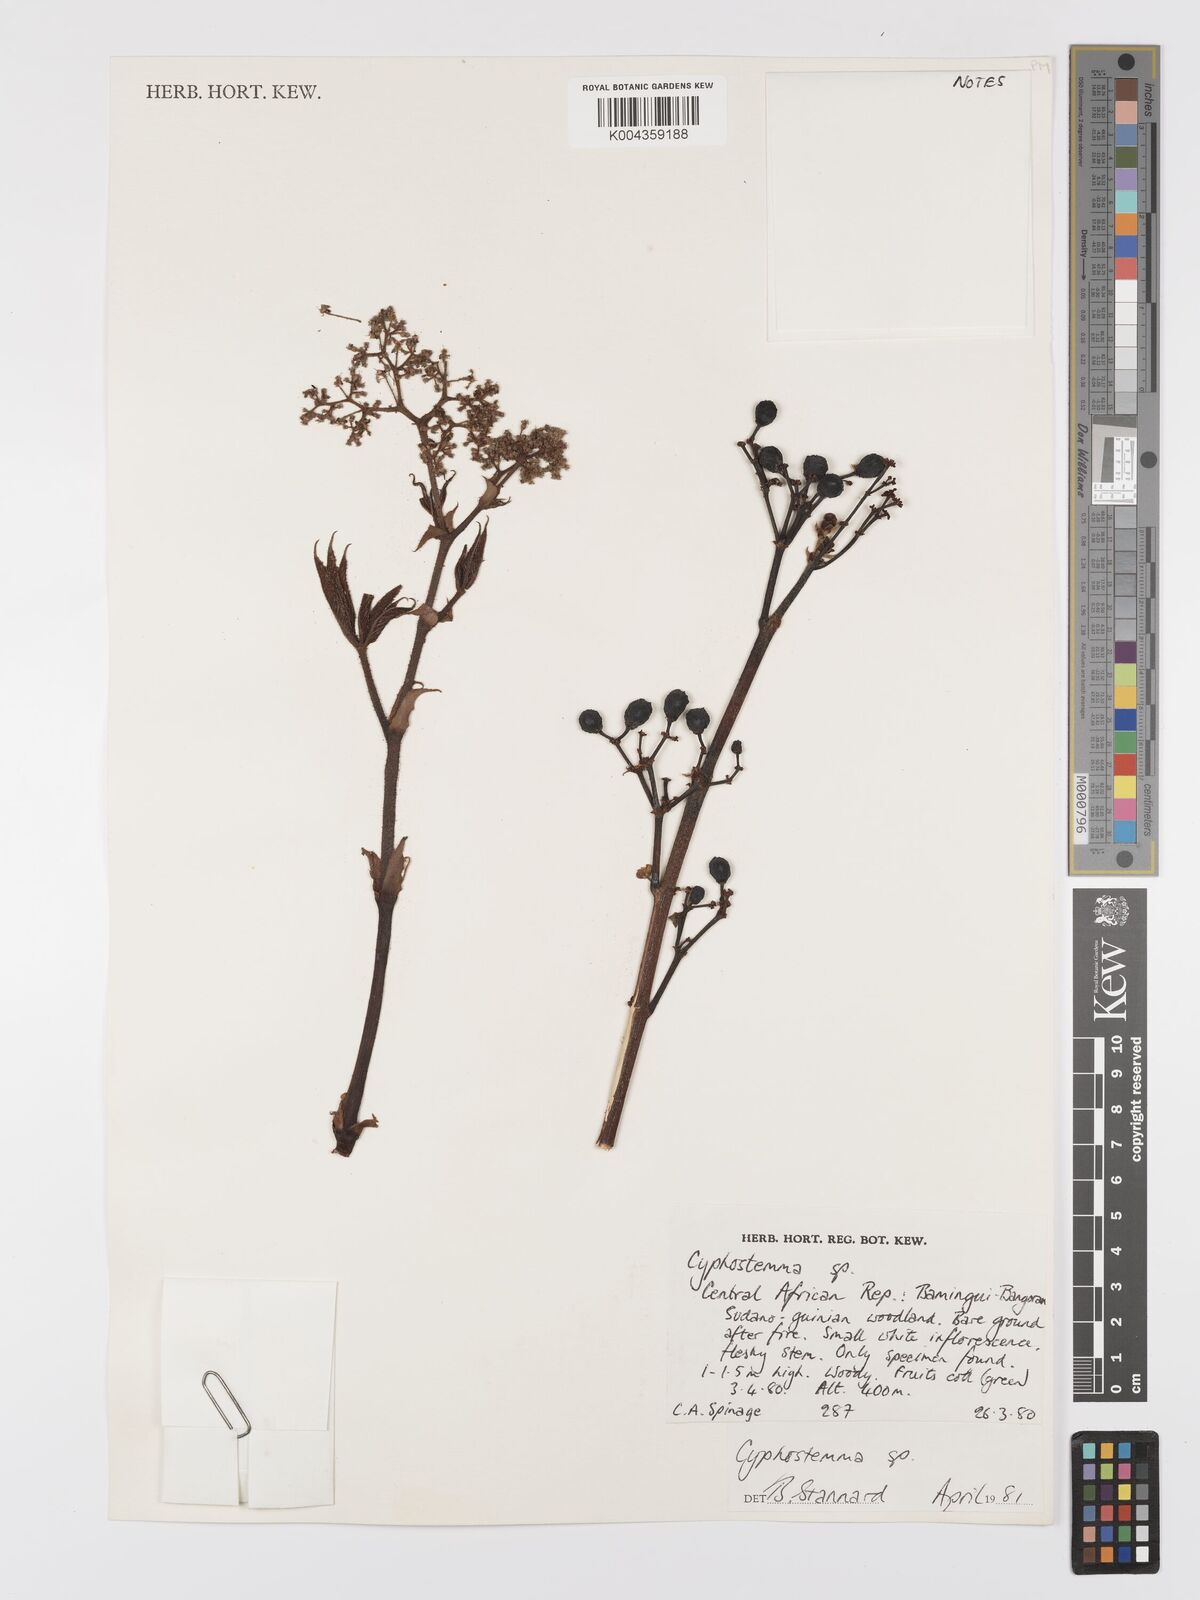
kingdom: Plantae
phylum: Tracheophyta
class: Magnoliopsida
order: Vitales
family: Vitaceae
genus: Cyphostemma
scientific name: Cyphostemma
